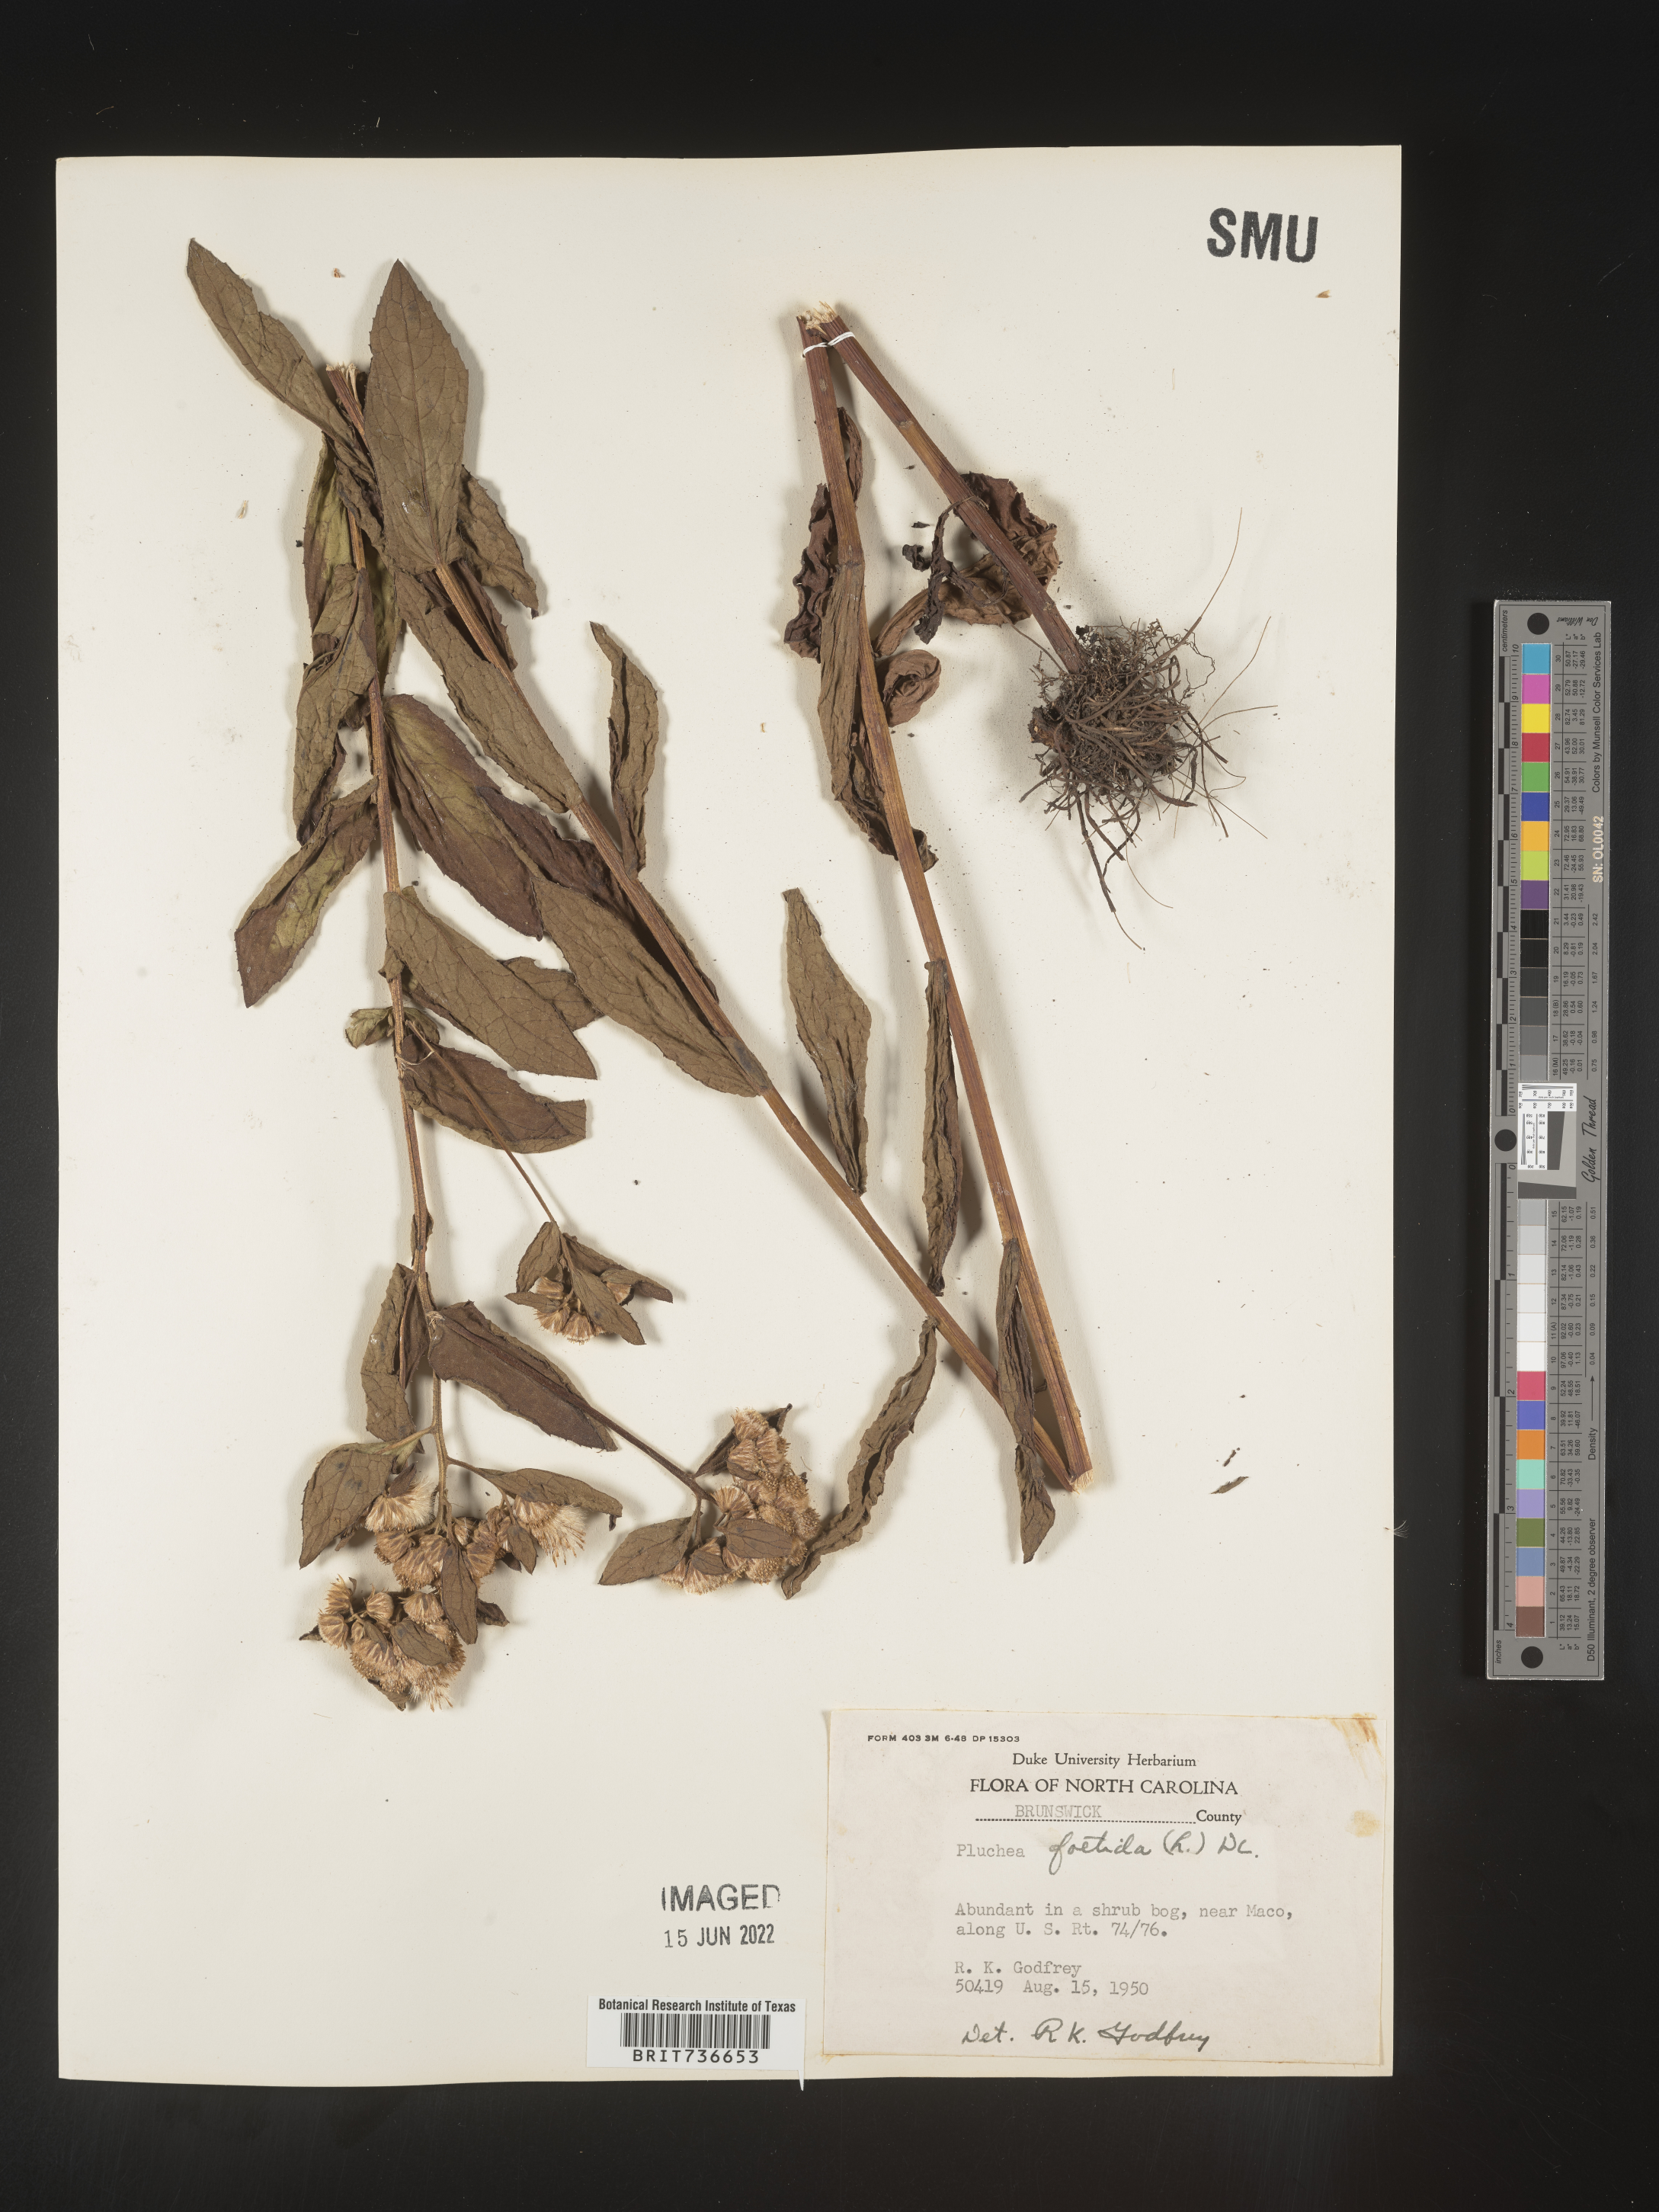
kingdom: Plantae
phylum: Tracheophyta
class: Magnoliopsida
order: Asterales
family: Asteraceae
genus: Pluchea
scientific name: Pluchea foetida
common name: Stinking camphorweed
